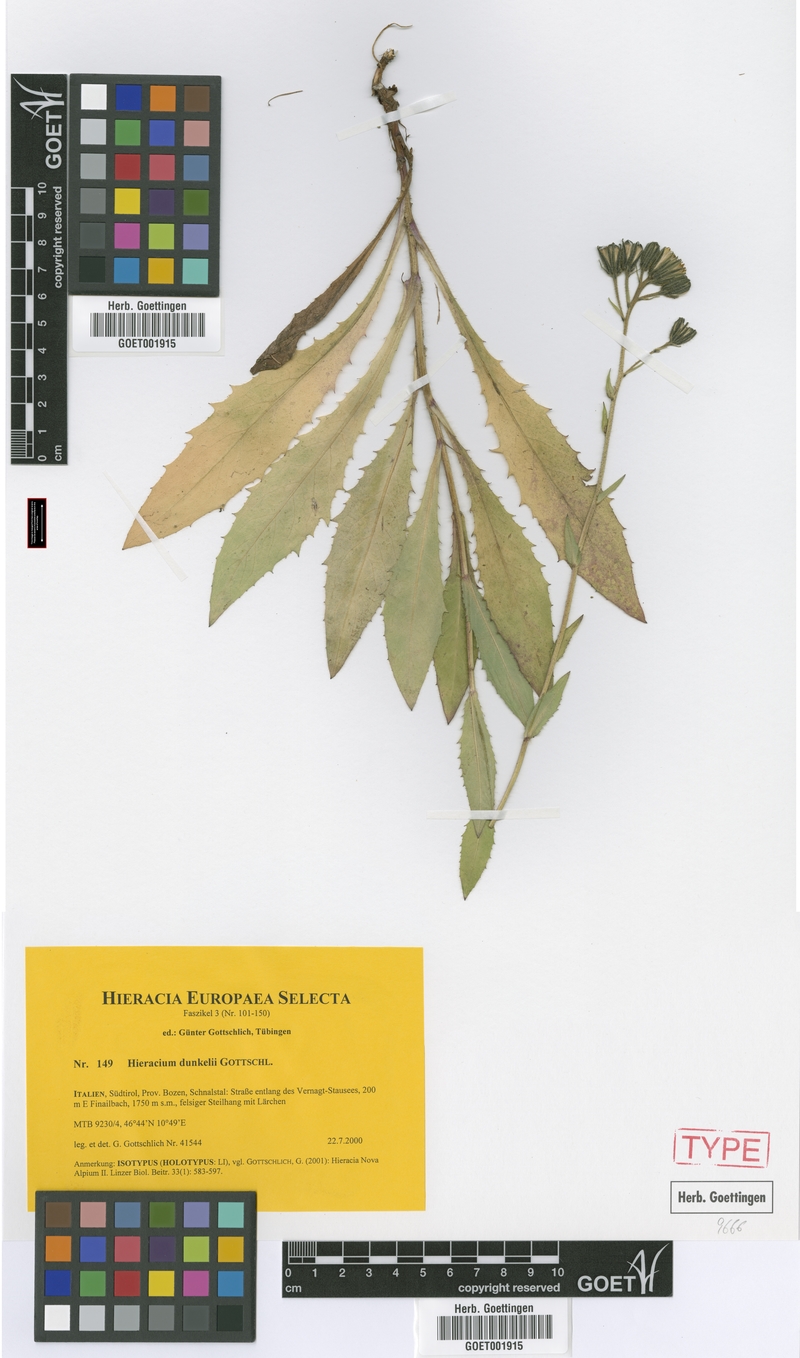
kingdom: Plantae
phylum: Tracheophyta
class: Magnoliopsida
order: Asterales
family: Asteraceae
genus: Hieracium
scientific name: Hieracium dunkelii
